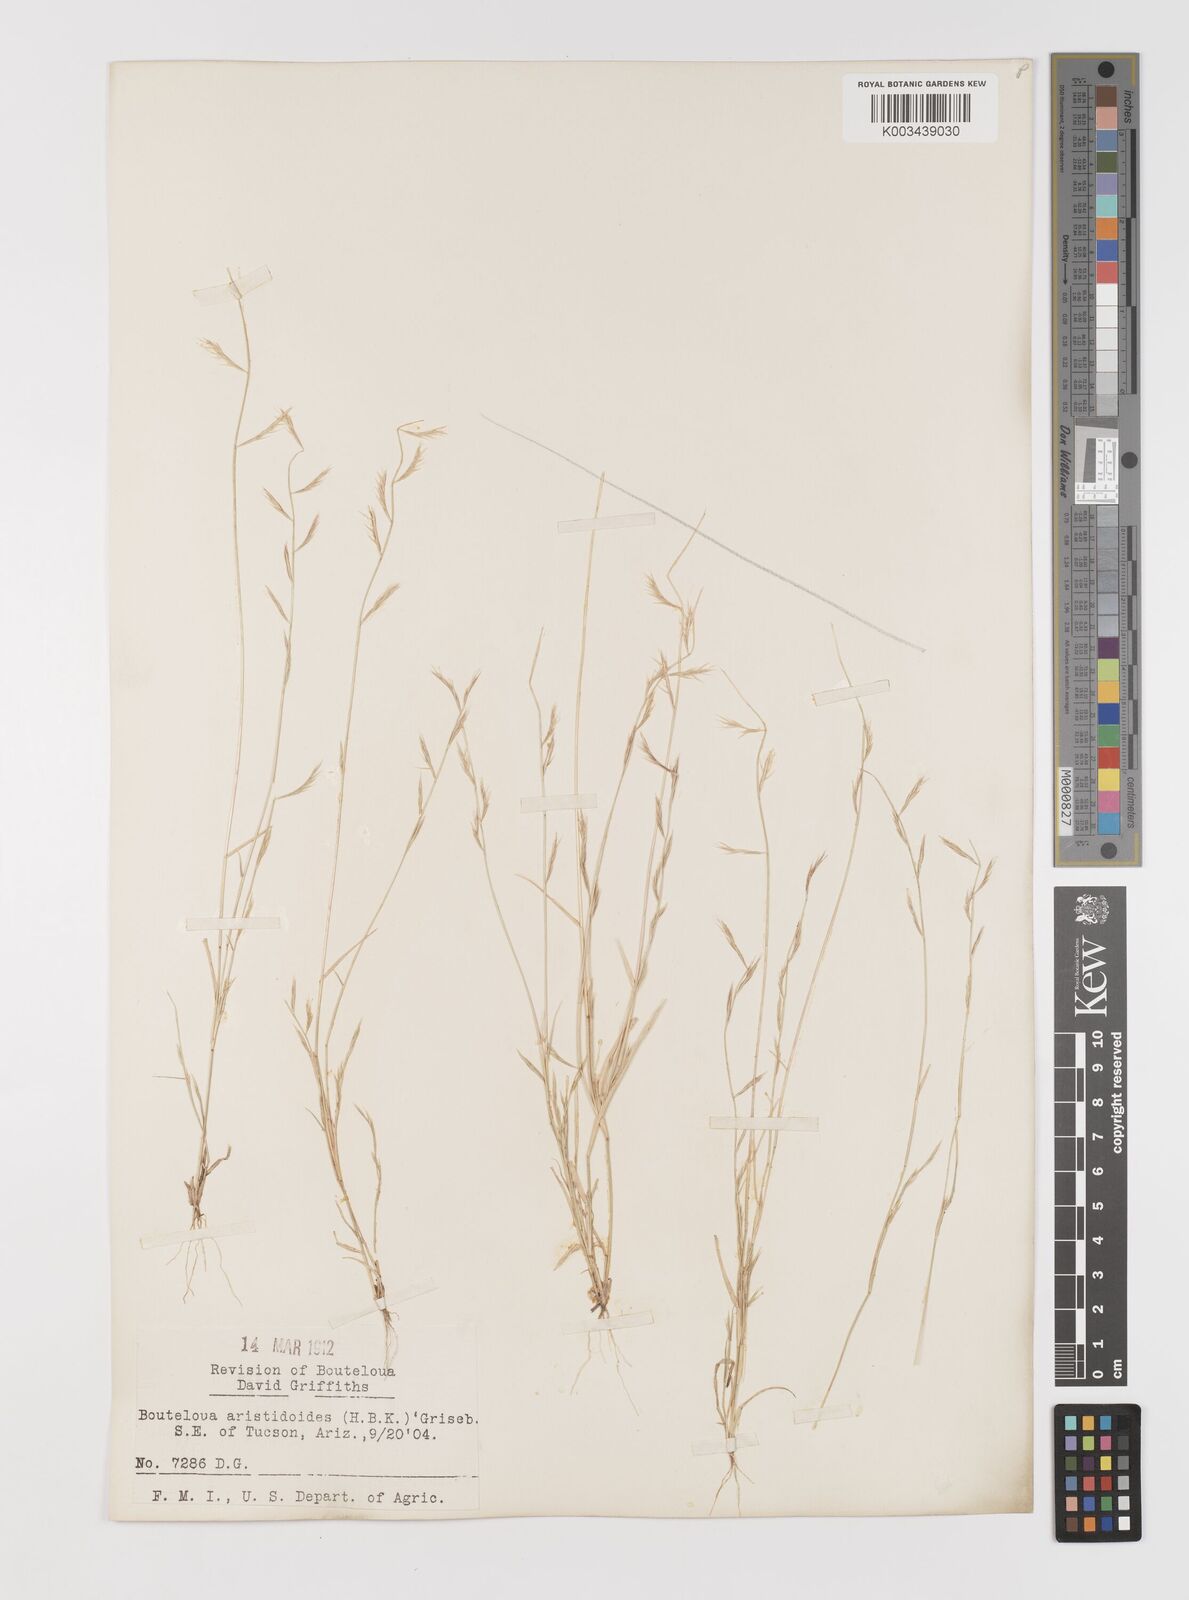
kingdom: Plantae
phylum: Tracheophyta
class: Liliopsida
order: Poales
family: Poaceae
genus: Bouteloua
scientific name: Bouteloua aristidoides
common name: Needle grama
